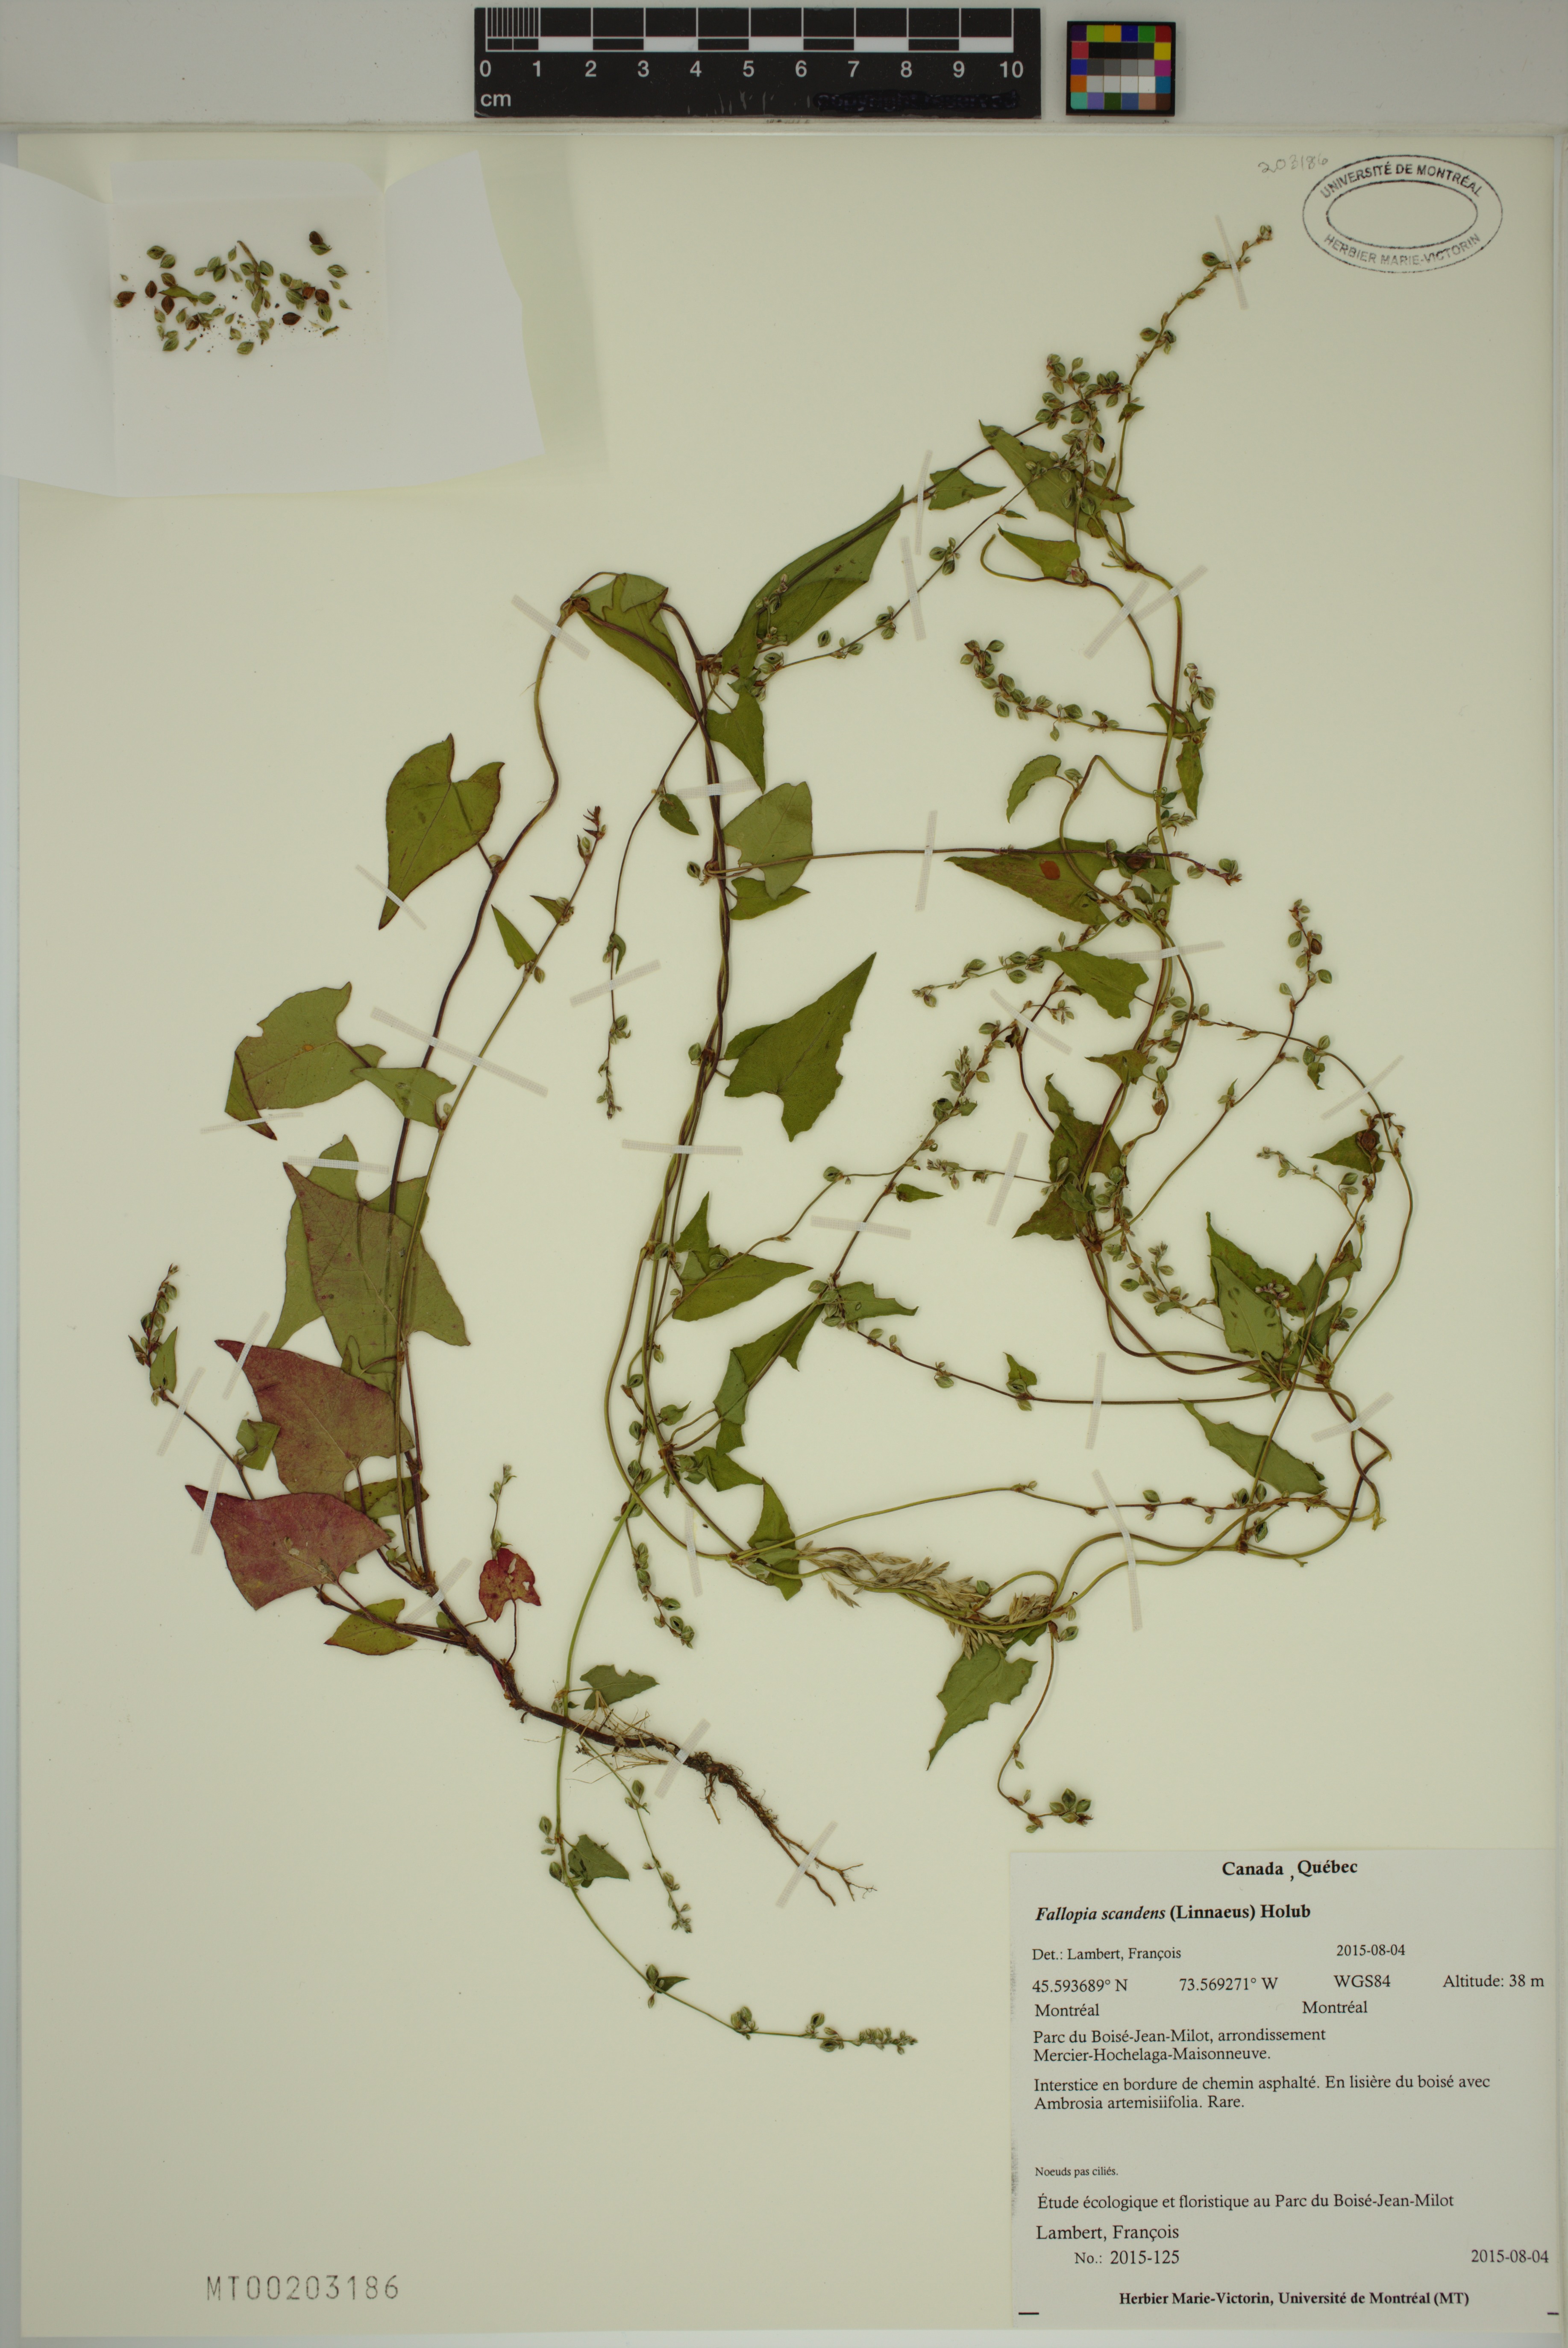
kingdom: Plantae
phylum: Tracheophyta
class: Magnoliopsida
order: Caryophyllales
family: Polygonaceae
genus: Fallopia
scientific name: Fallopia scandens
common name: Climbing false buckwheat
